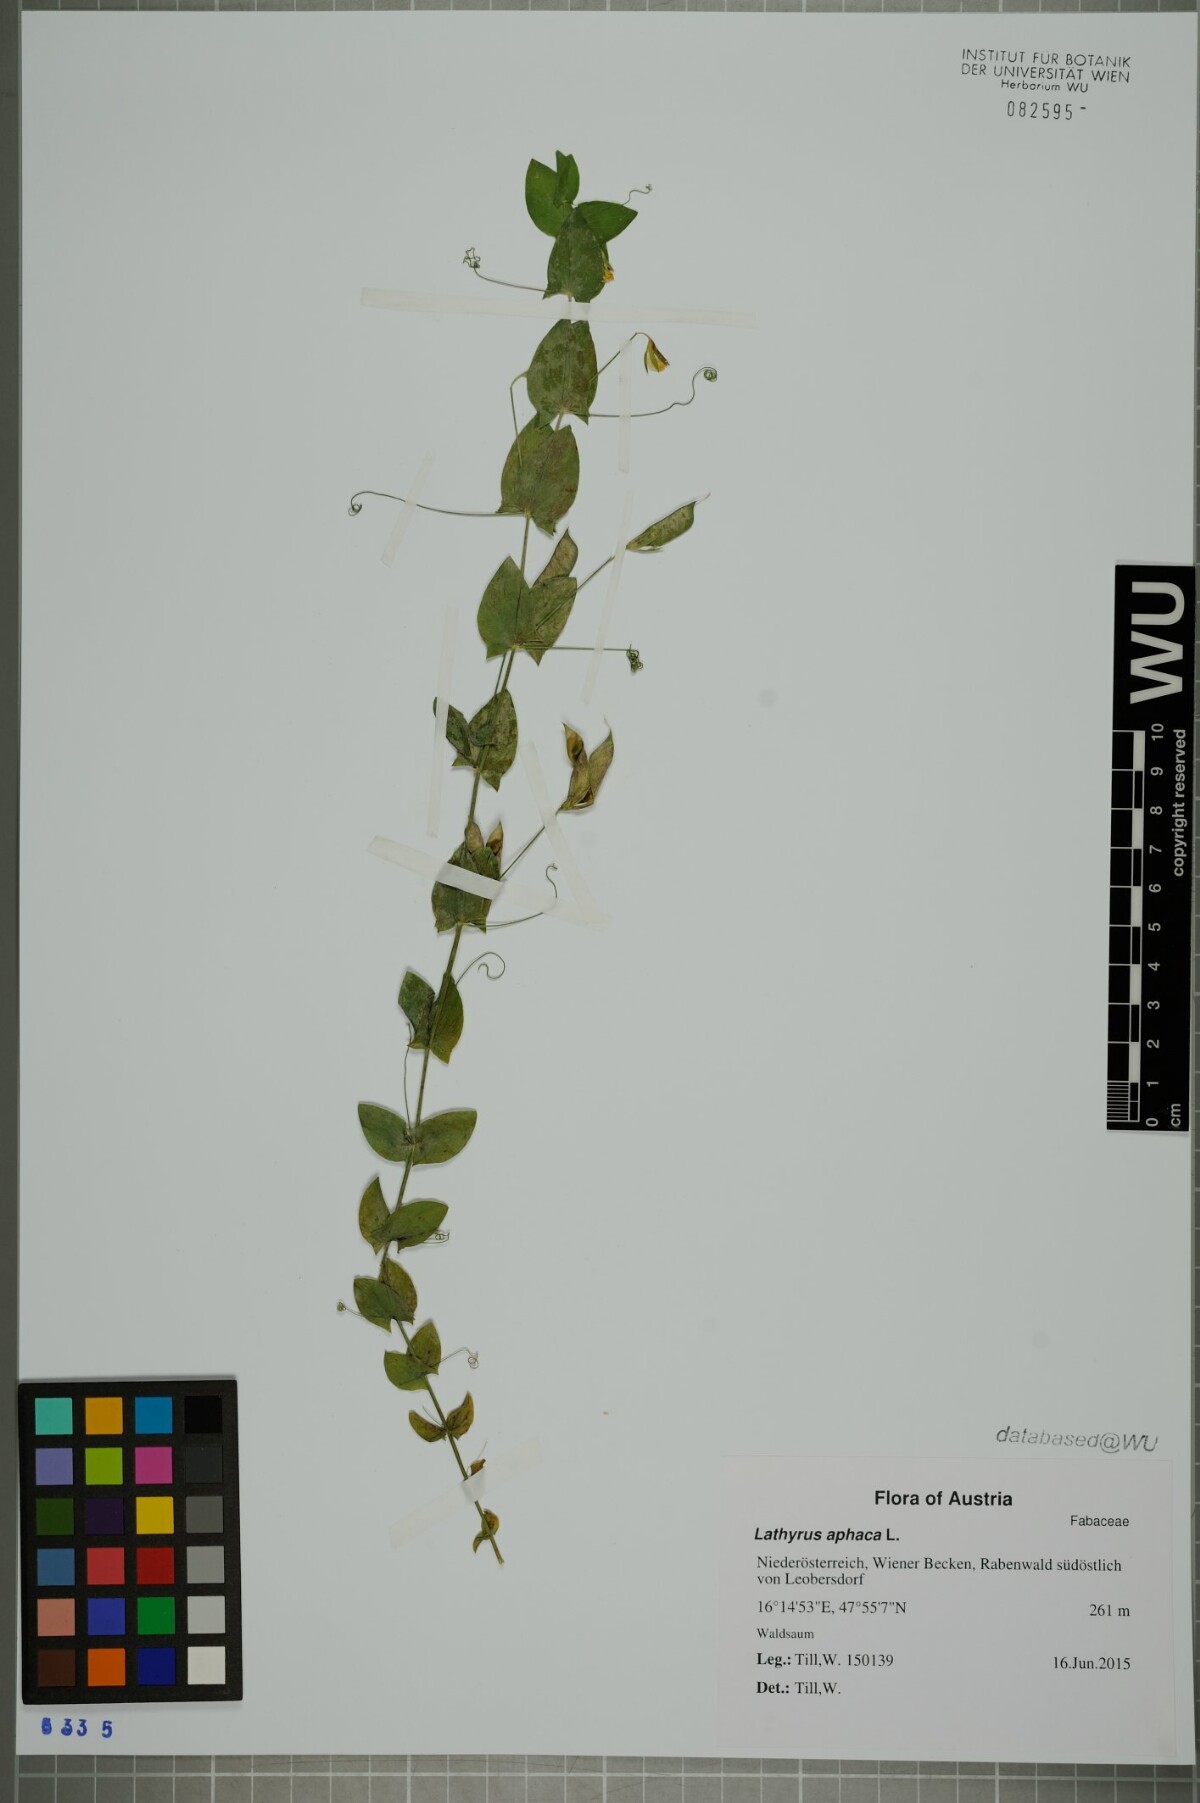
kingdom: Plantae
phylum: Tracheophyta
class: Magnoliopsida
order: Fabales
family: Fabaceae
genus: Lathyrus
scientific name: Lathyrus aphaca
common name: Yellow vetchling
